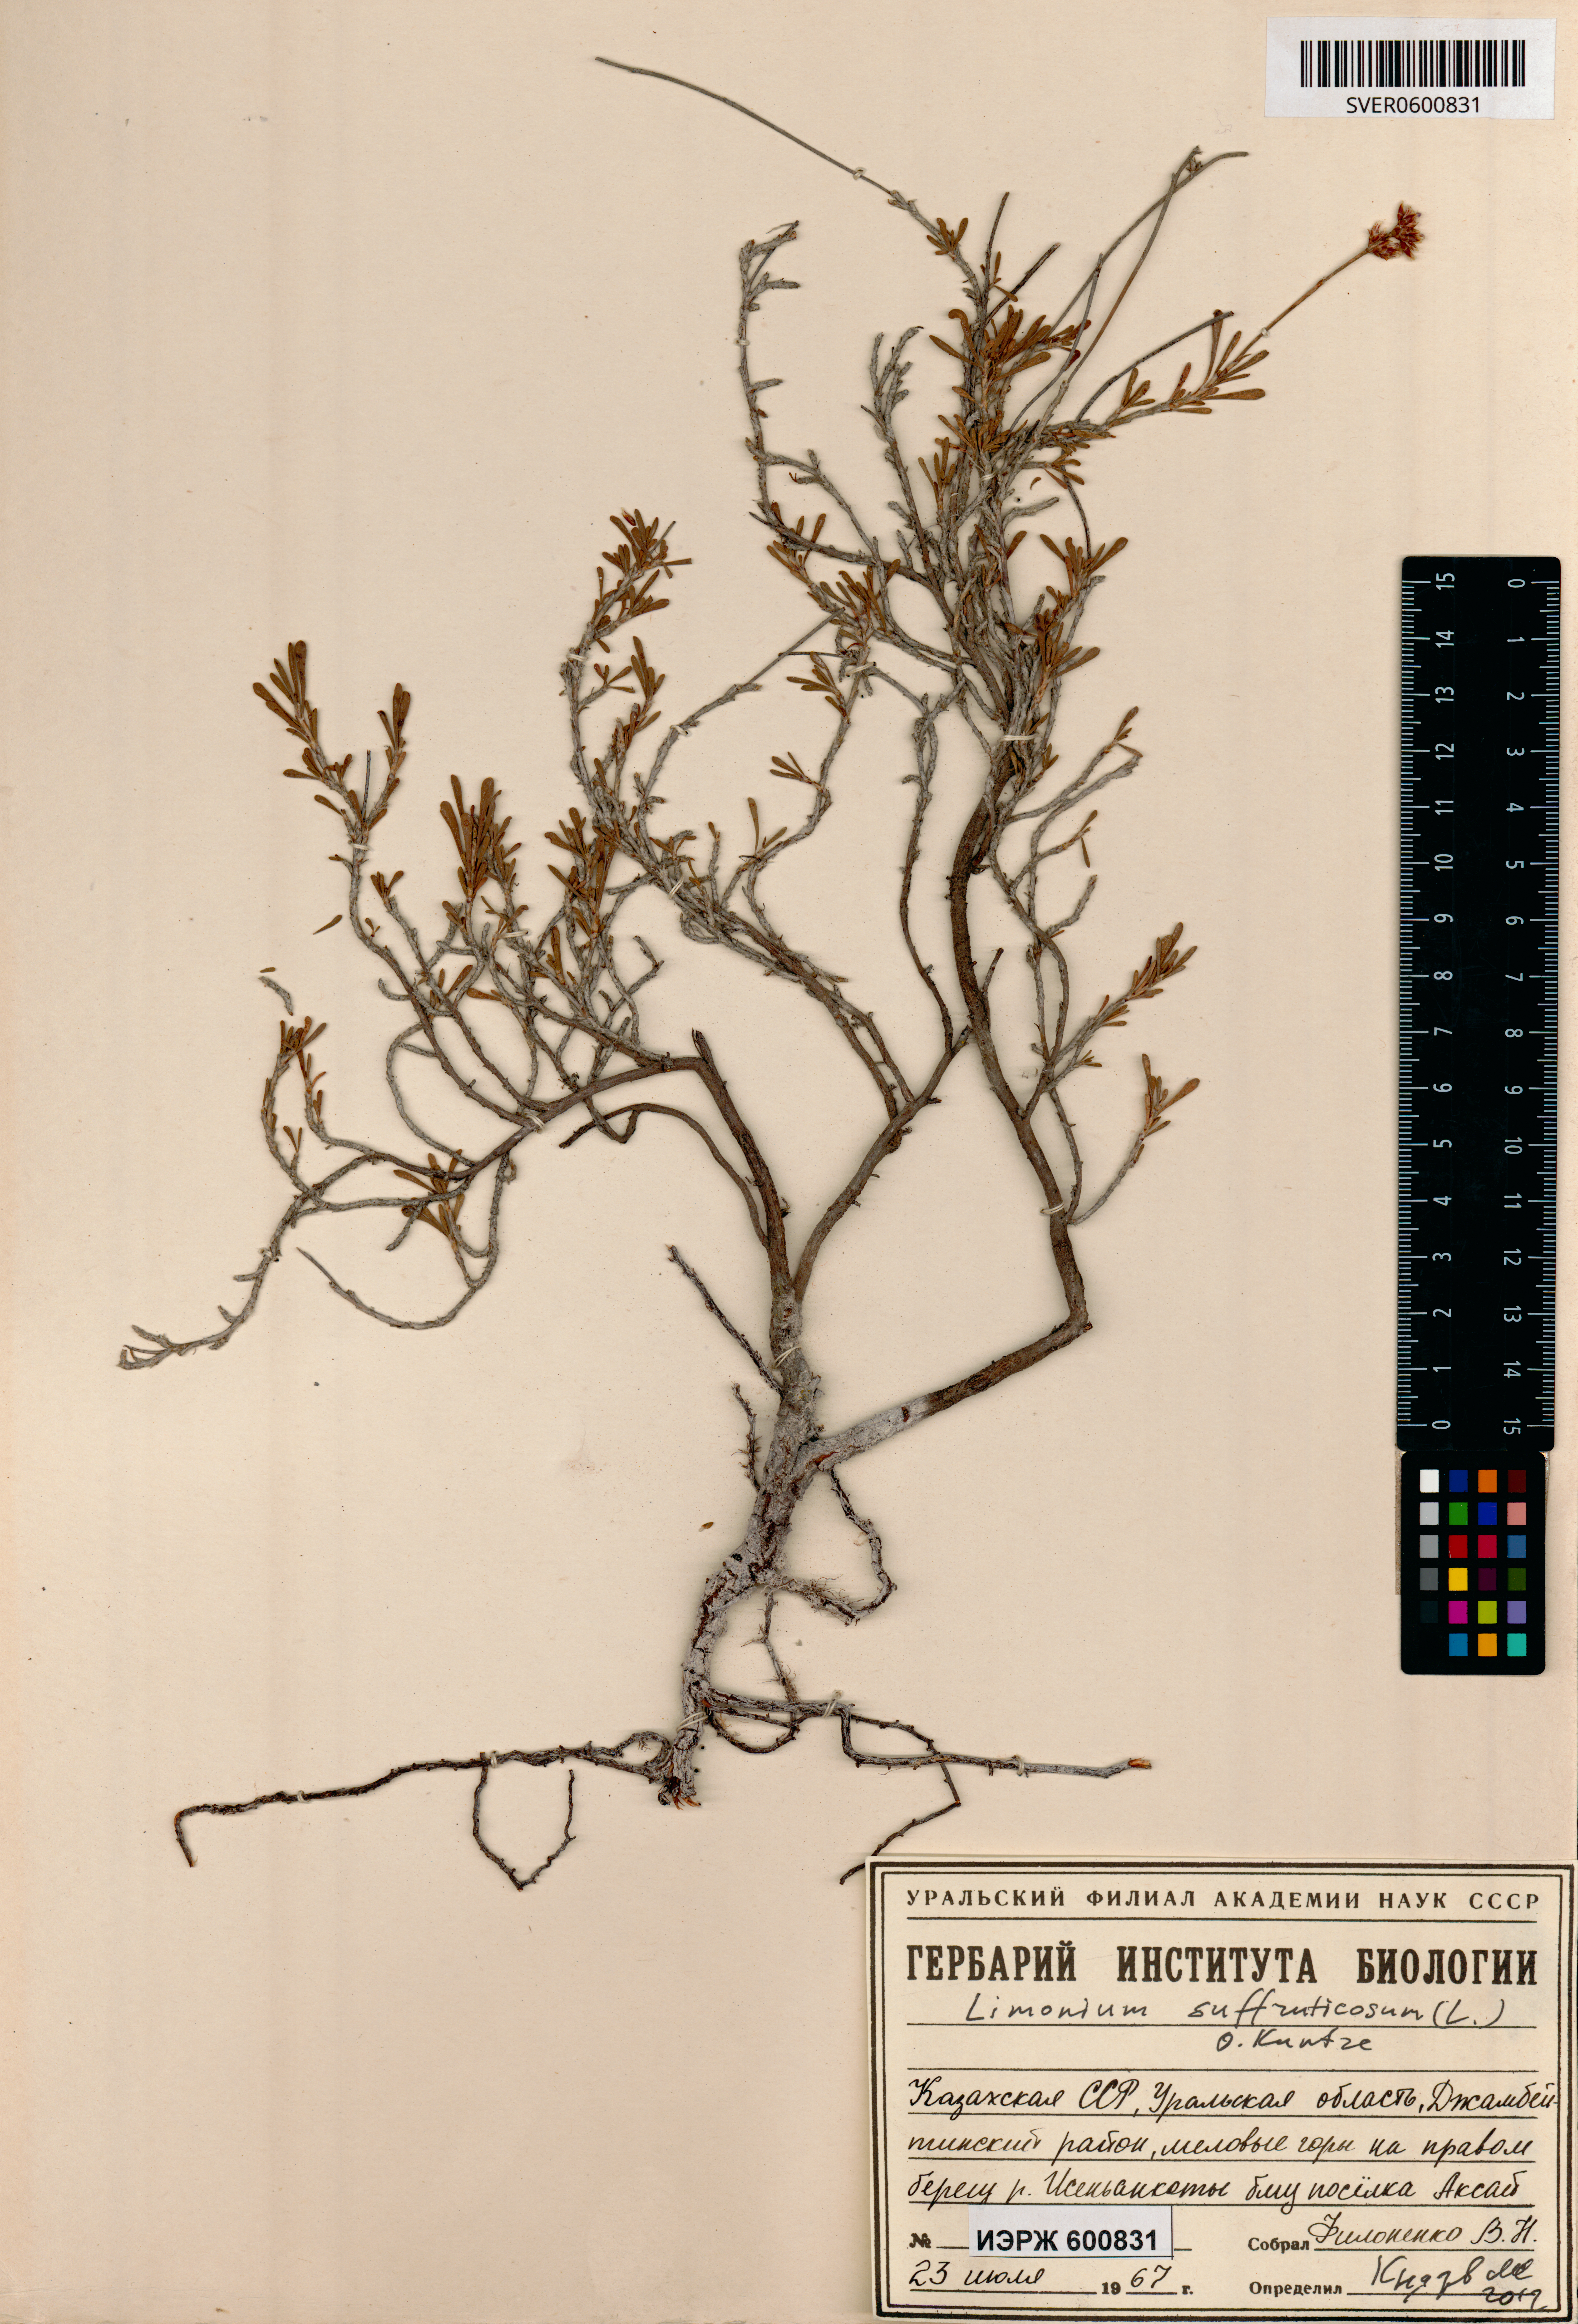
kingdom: Plantae
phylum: Tracheophyta
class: Magnoliopsida
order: Caryophyllales
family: Plumbaginaceae
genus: Limonium
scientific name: Limonium suffruticosum
